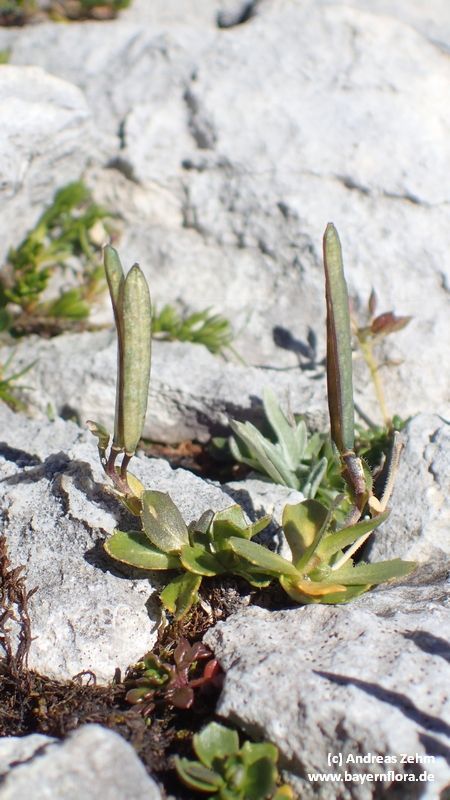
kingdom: Plantae
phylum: Tracheophyta
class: Magnoliopsida
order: Brassicales
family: Brassicaceae
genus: Arabis
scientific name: Arabis caerulea
